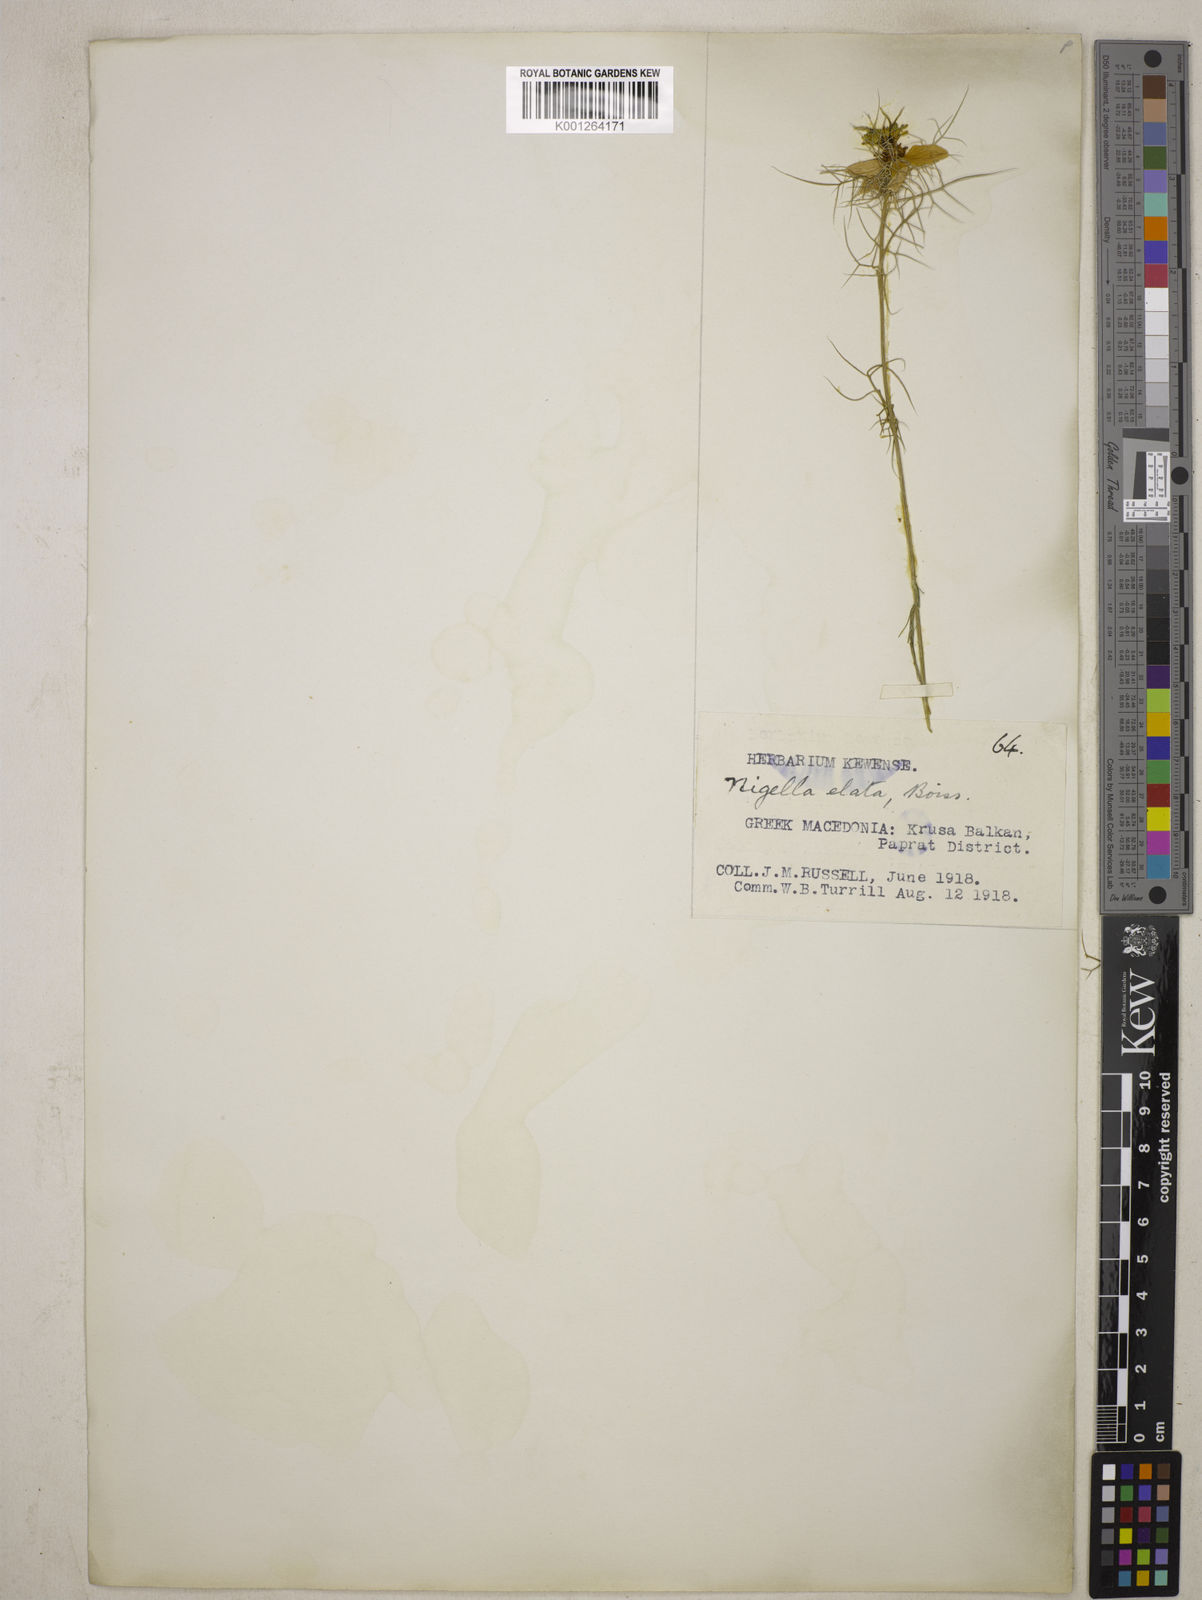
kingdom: Plantae
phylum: Tracheophyta
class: Magnoliopsida
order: Ranunculales
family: Ranunculaceae
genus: Nigella
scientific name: Nigella elata
